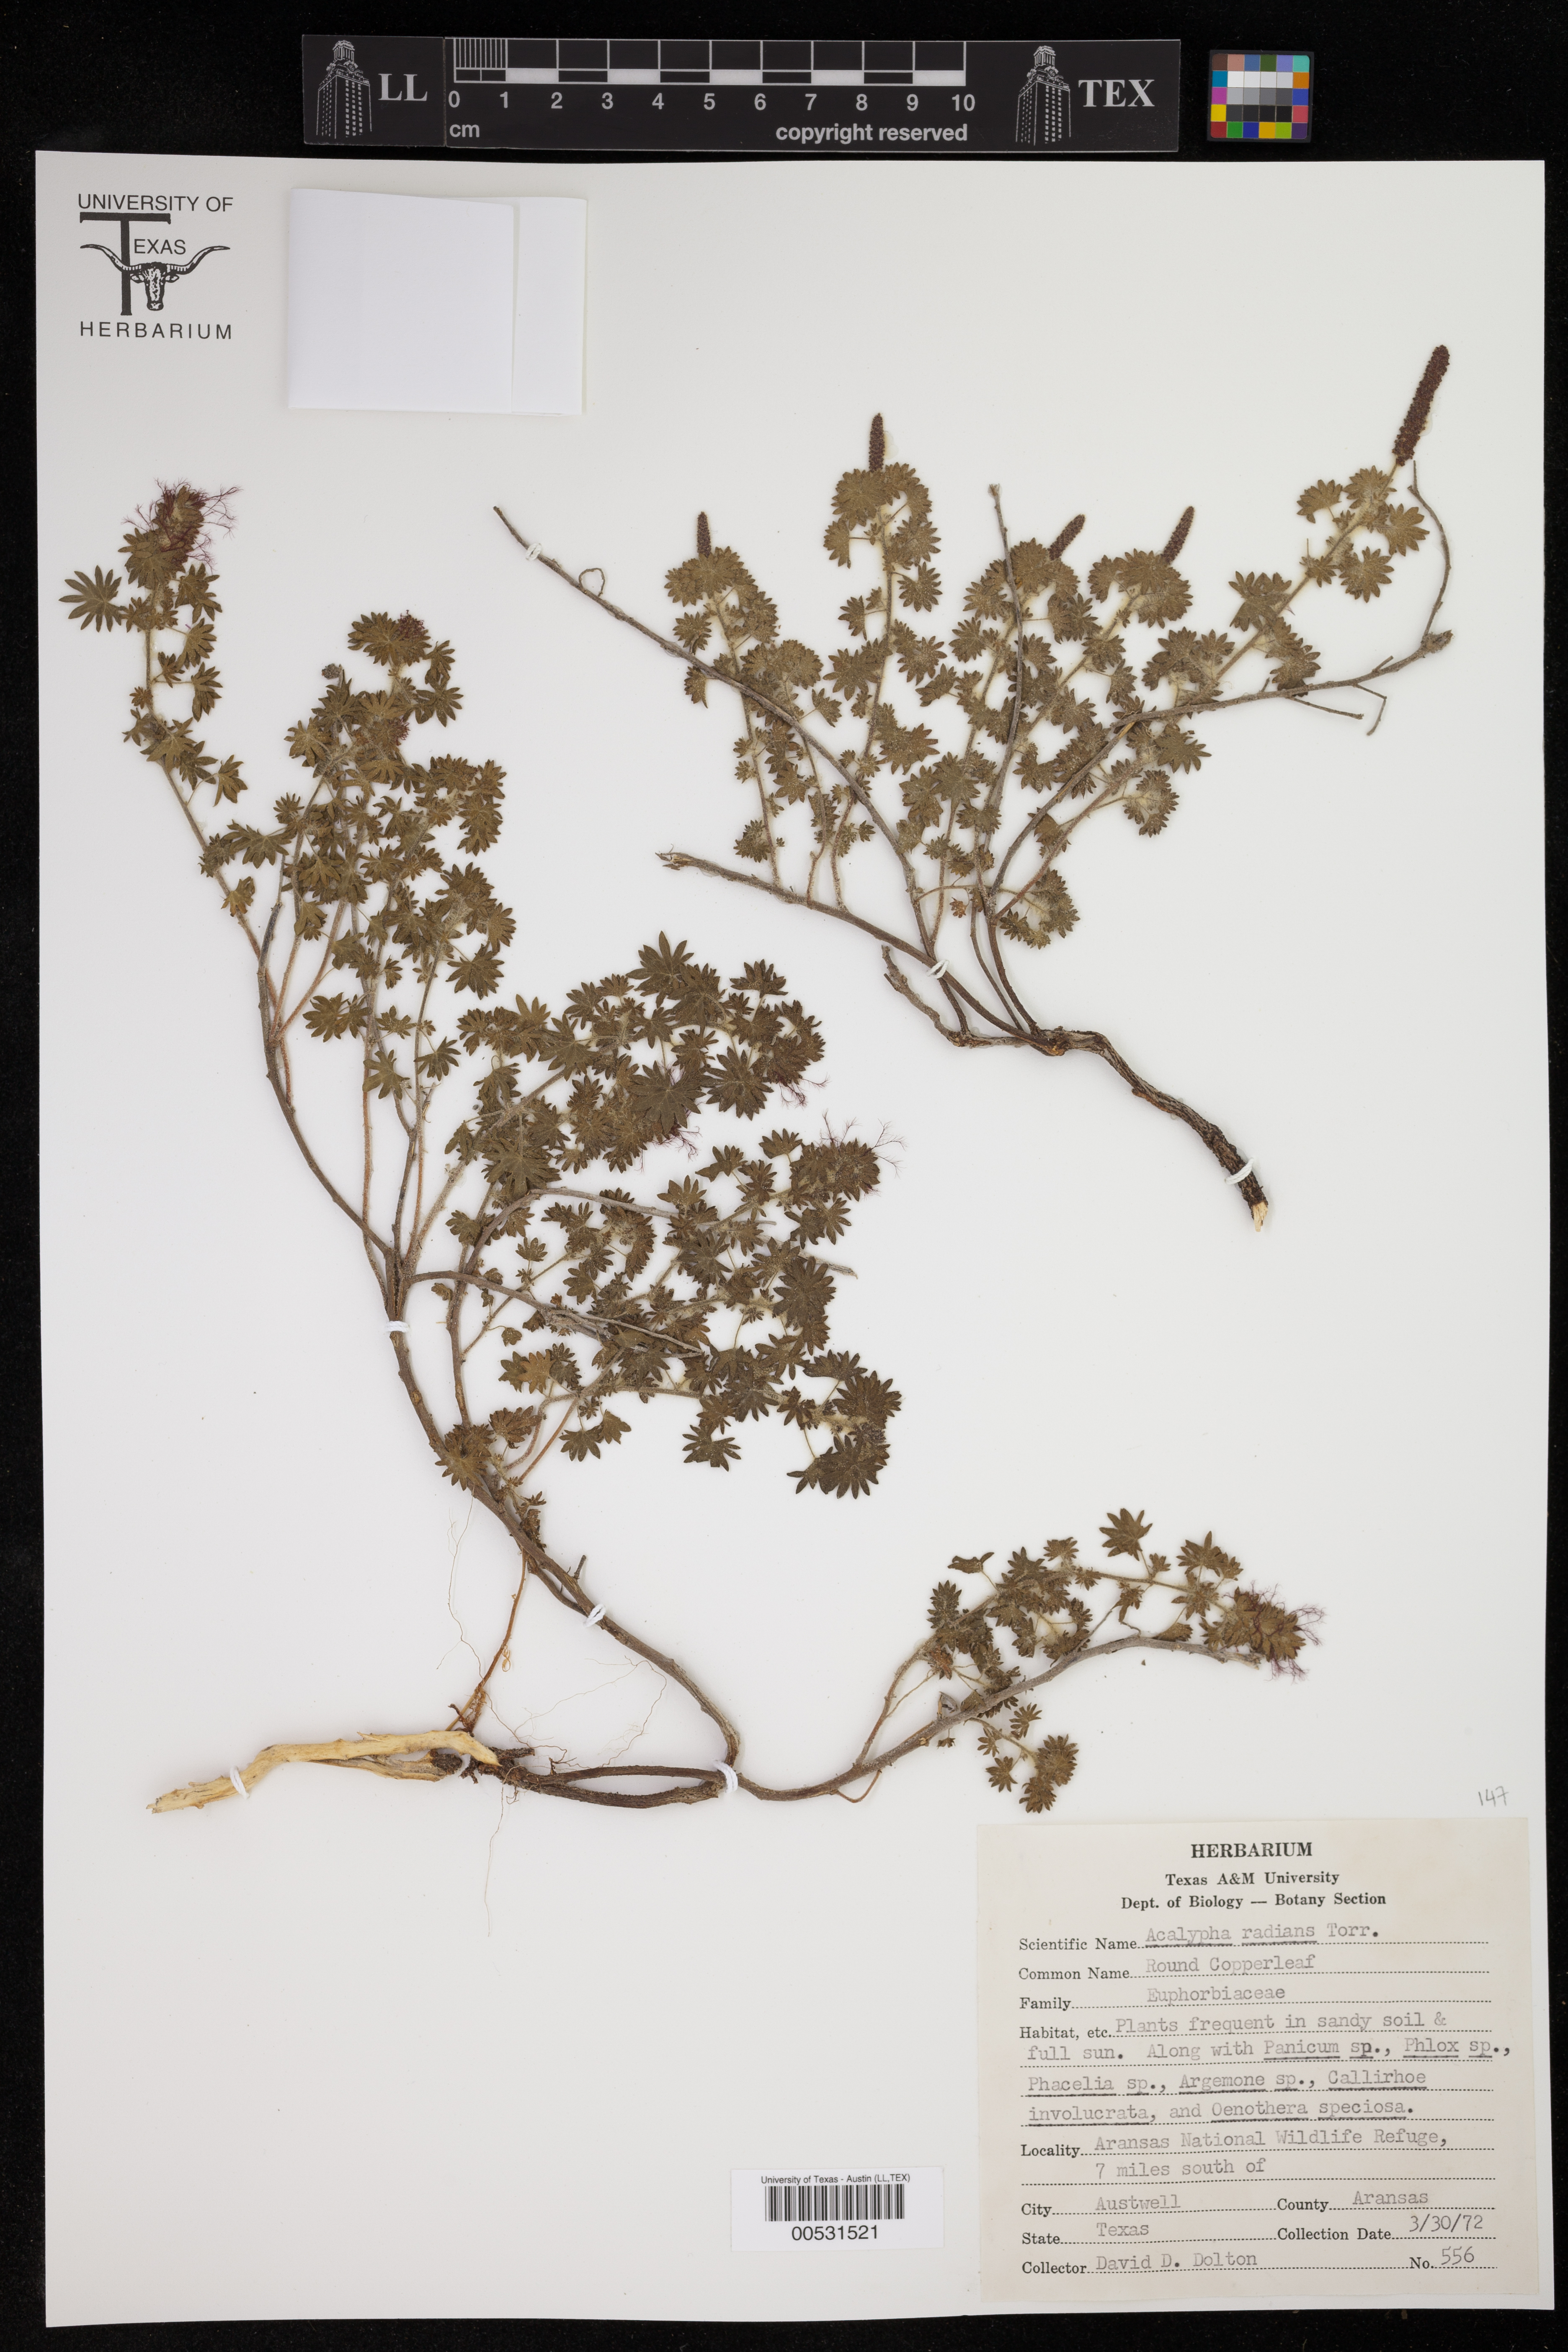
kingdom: Plantae
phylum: Tracheophyta
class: Magnoliopsida
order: Malpighiales
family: Euphorbiaceae
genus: Acalypha
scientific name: Acalypha radians
